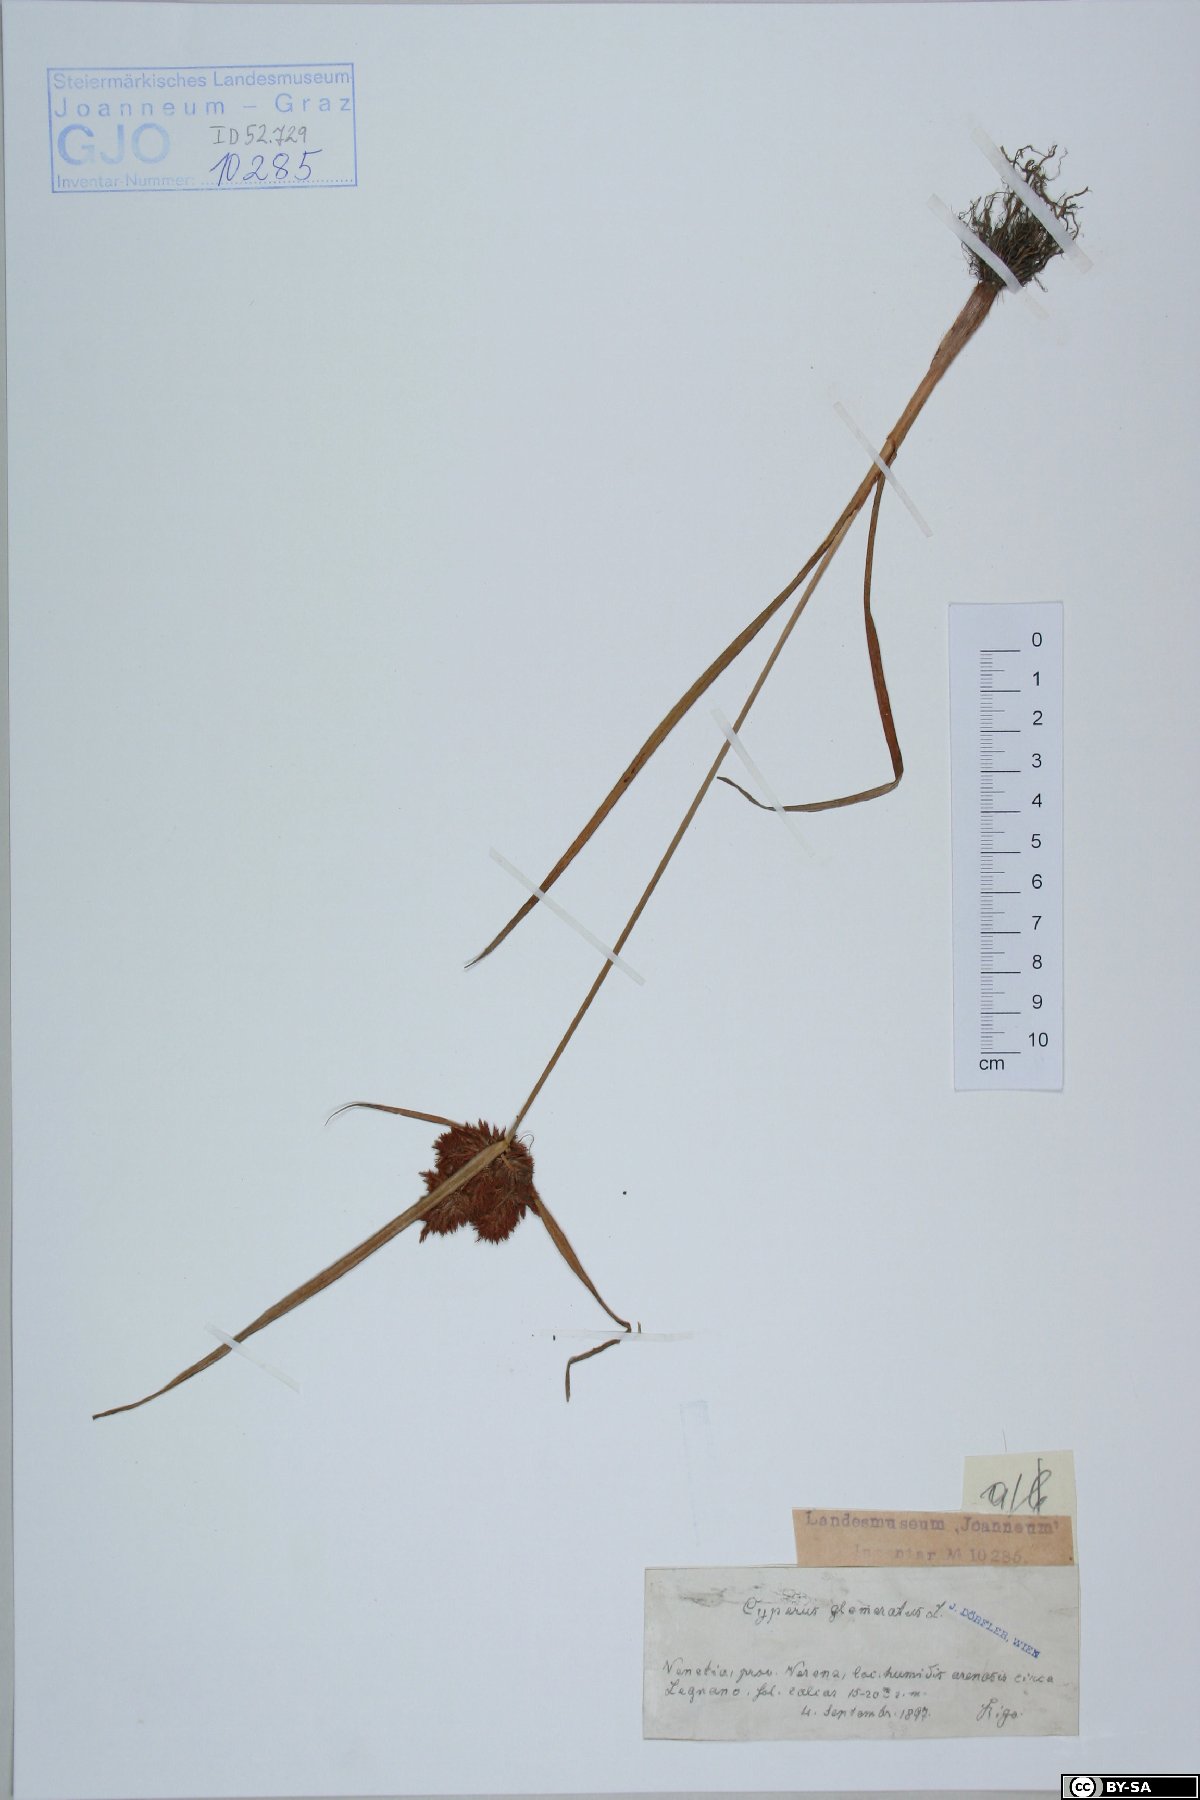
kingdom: Plantae
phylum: Tracheophyta
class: Liliopsida
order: Poales
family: Cyperaceae
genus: Cyperus
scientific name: Cyperus glomeratus
